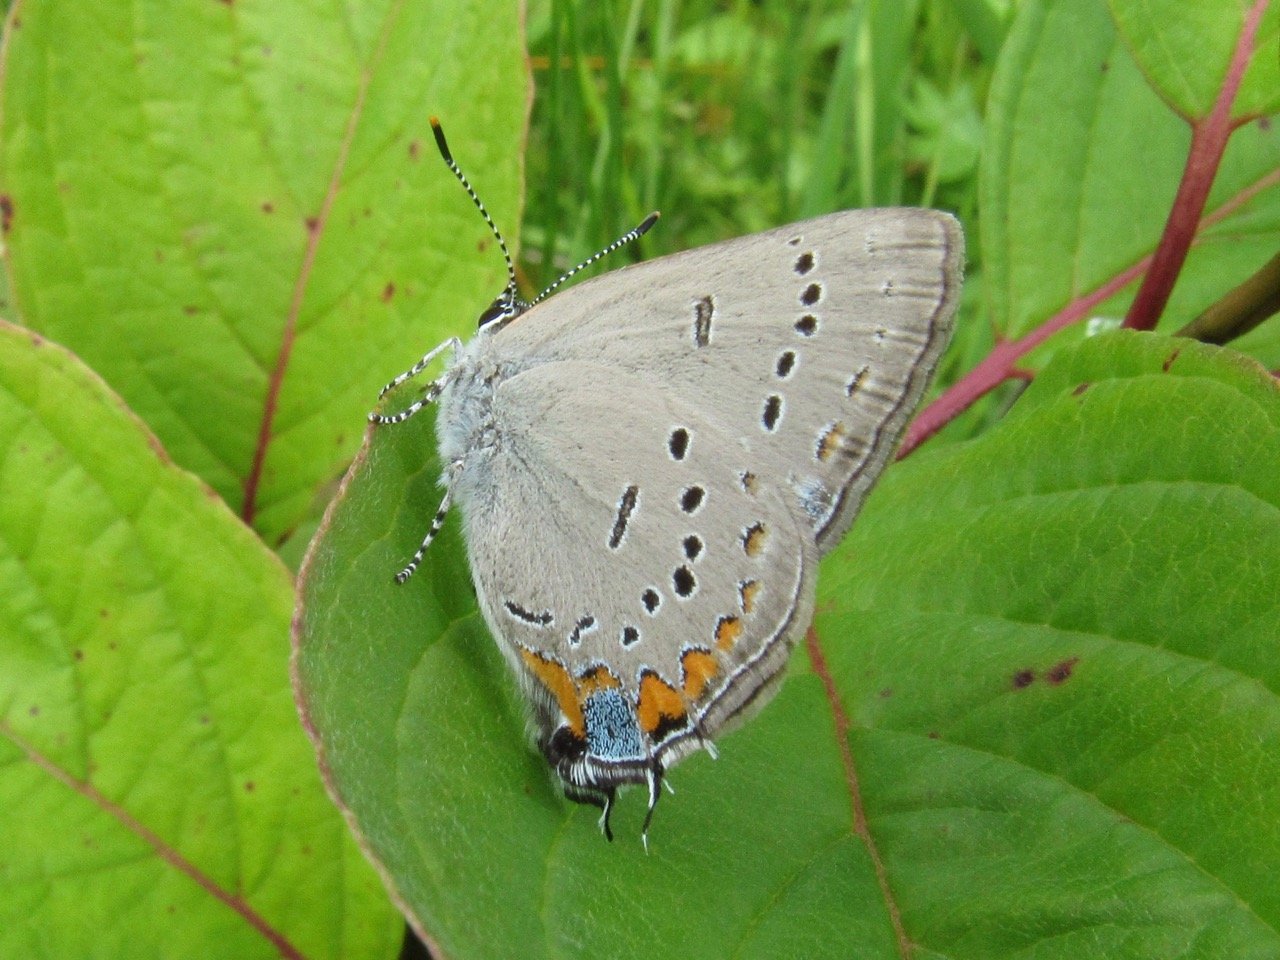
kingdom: Animalia
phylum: Arthropoda
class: Insecta
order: Lepidoptera
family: Lycaenidae
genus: Strymon
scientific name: Strymon acadica
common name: Acadian Hairstreak
